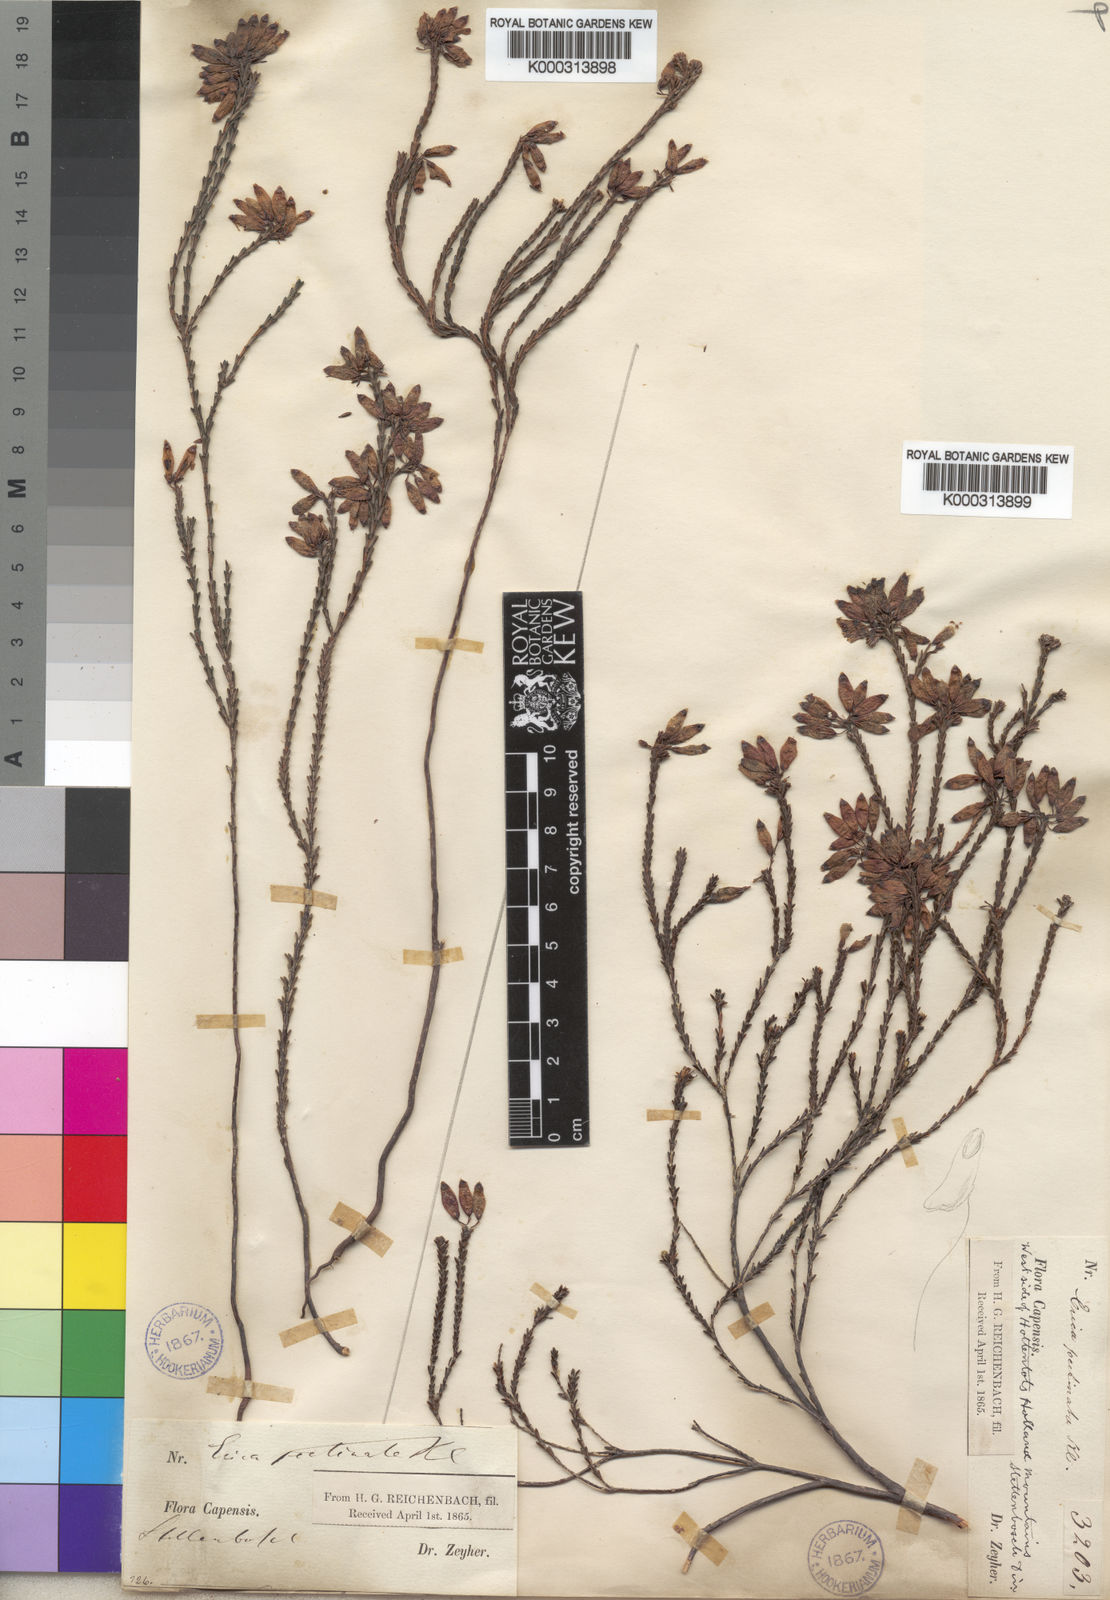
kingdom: Plantae
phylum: Tracheophyta
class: Magnoliopsida
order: Ericales
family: Ericaceae
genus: Erica
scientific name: Erica cristata
